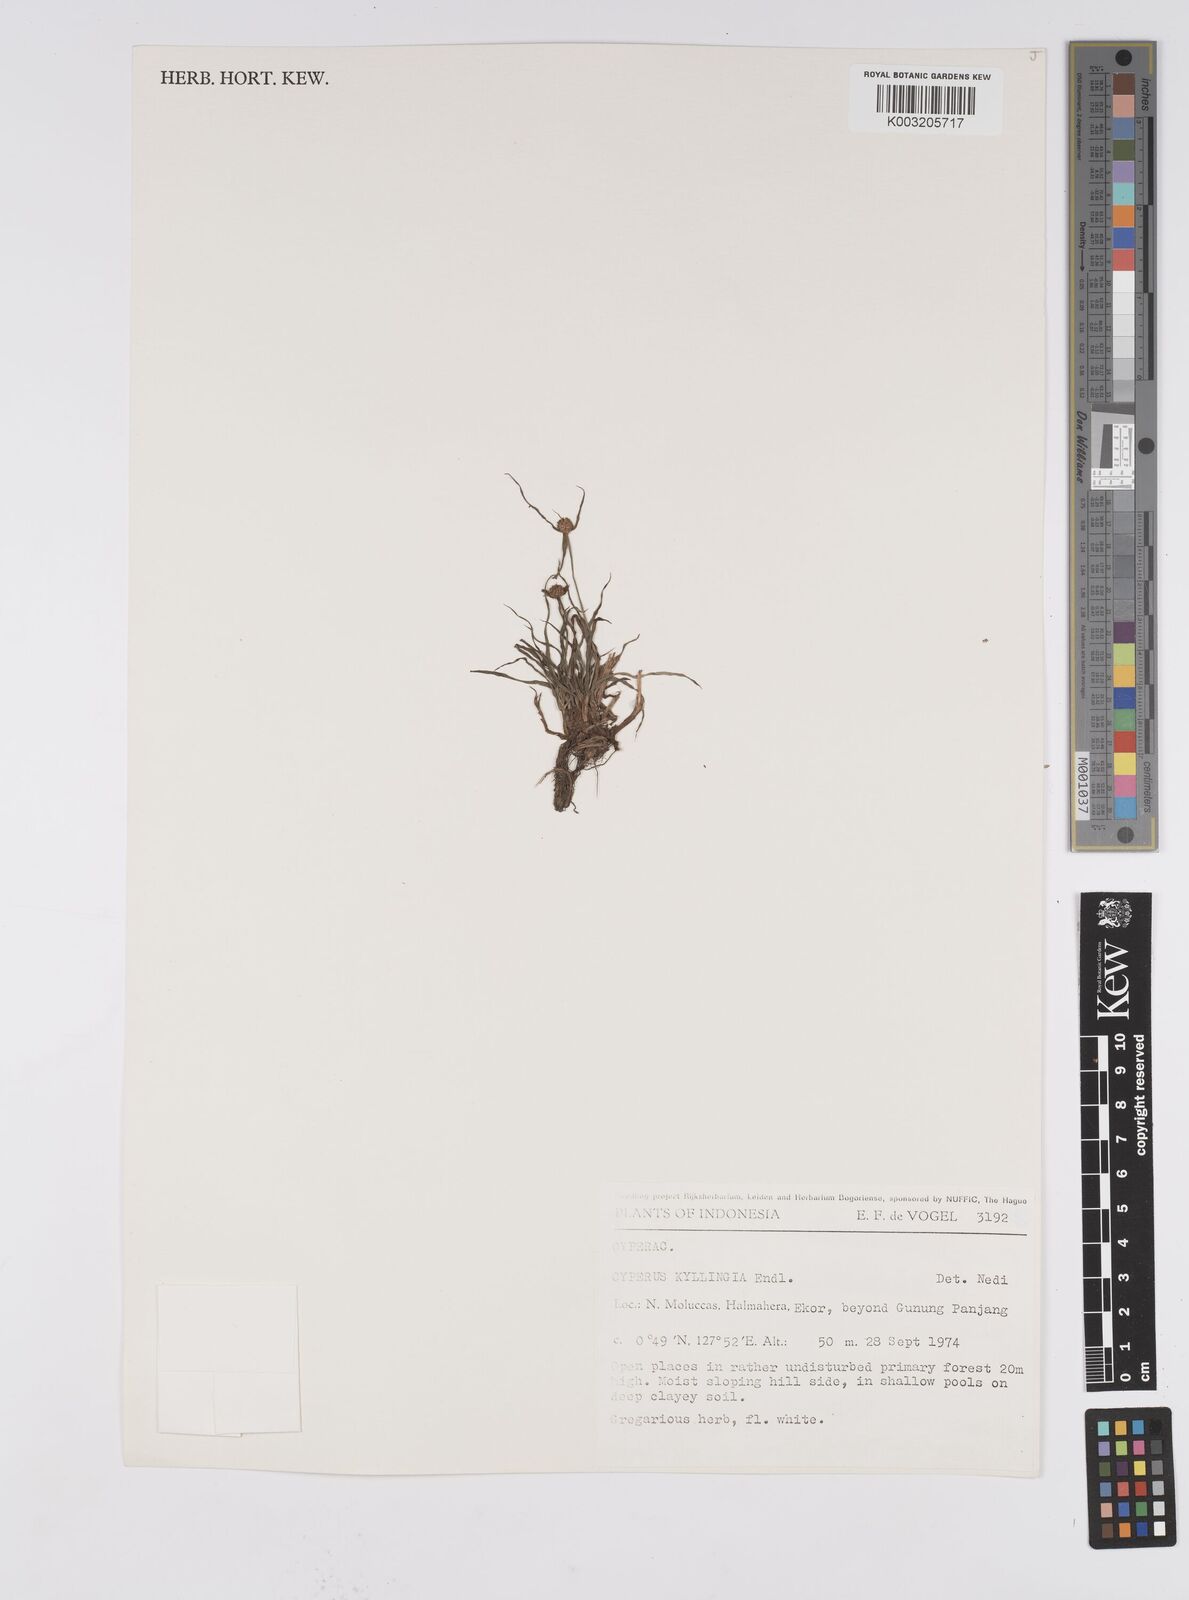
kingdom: Plantae
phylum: Tracheophyta
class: Liliopsida
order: Poales
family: Cyperaceae
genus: Cyperus
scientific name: Cyperus nemoralis
